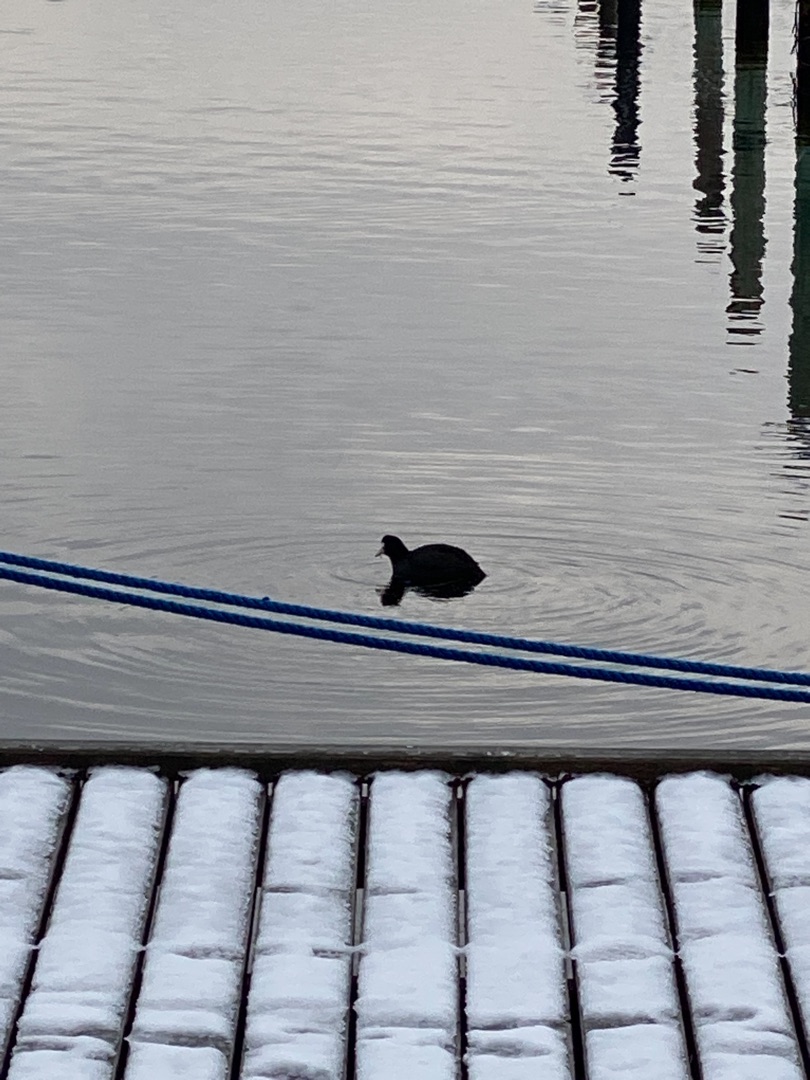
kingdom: Animalia
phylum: Chordata
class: Aves
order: Gruiformes
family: Rallidae
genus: Fulica
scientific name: Fulica atra
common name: Blishøne
